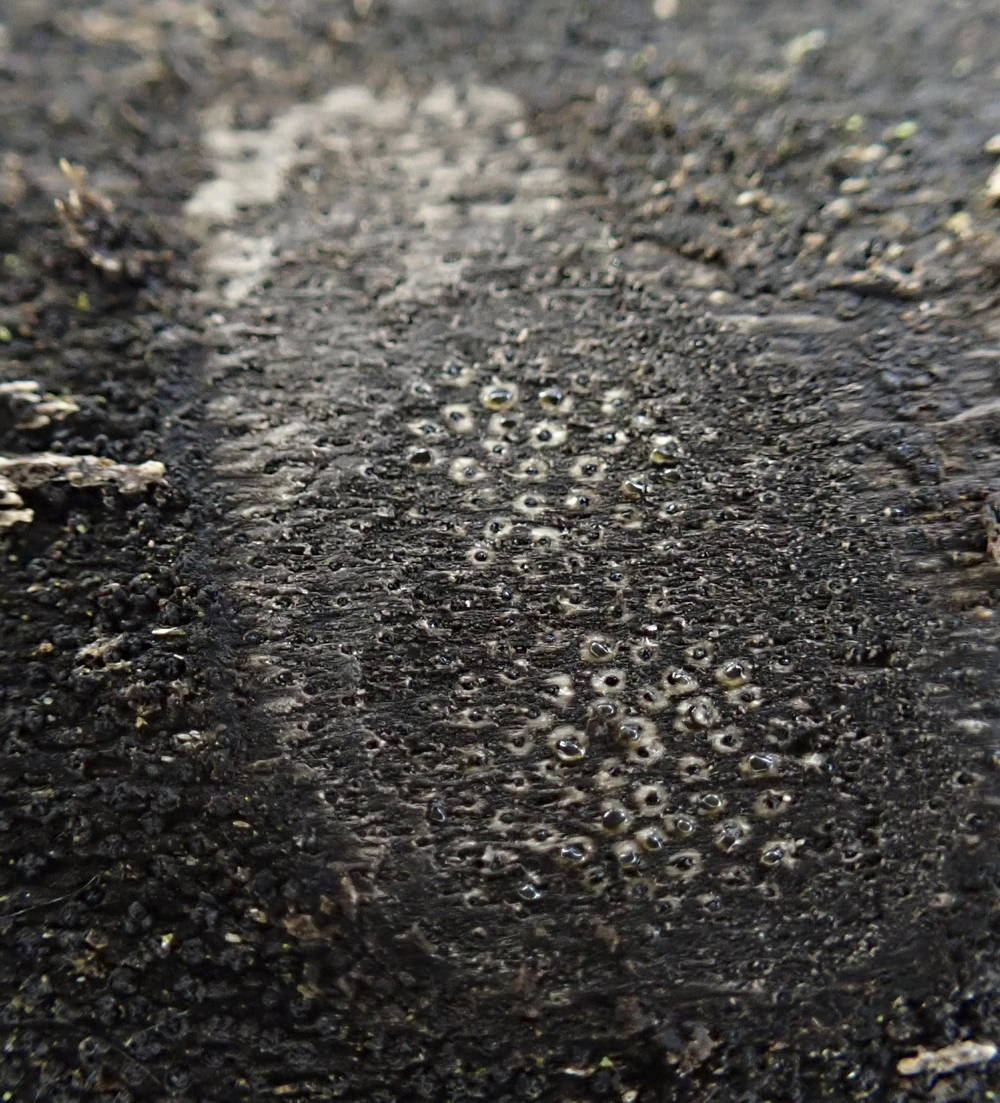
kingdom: Fungi
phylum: Ascomycota
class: Sordariomycetes
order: Xylariales
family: Diatrypaceae
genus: Eutypa
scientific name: Eutypa maura
